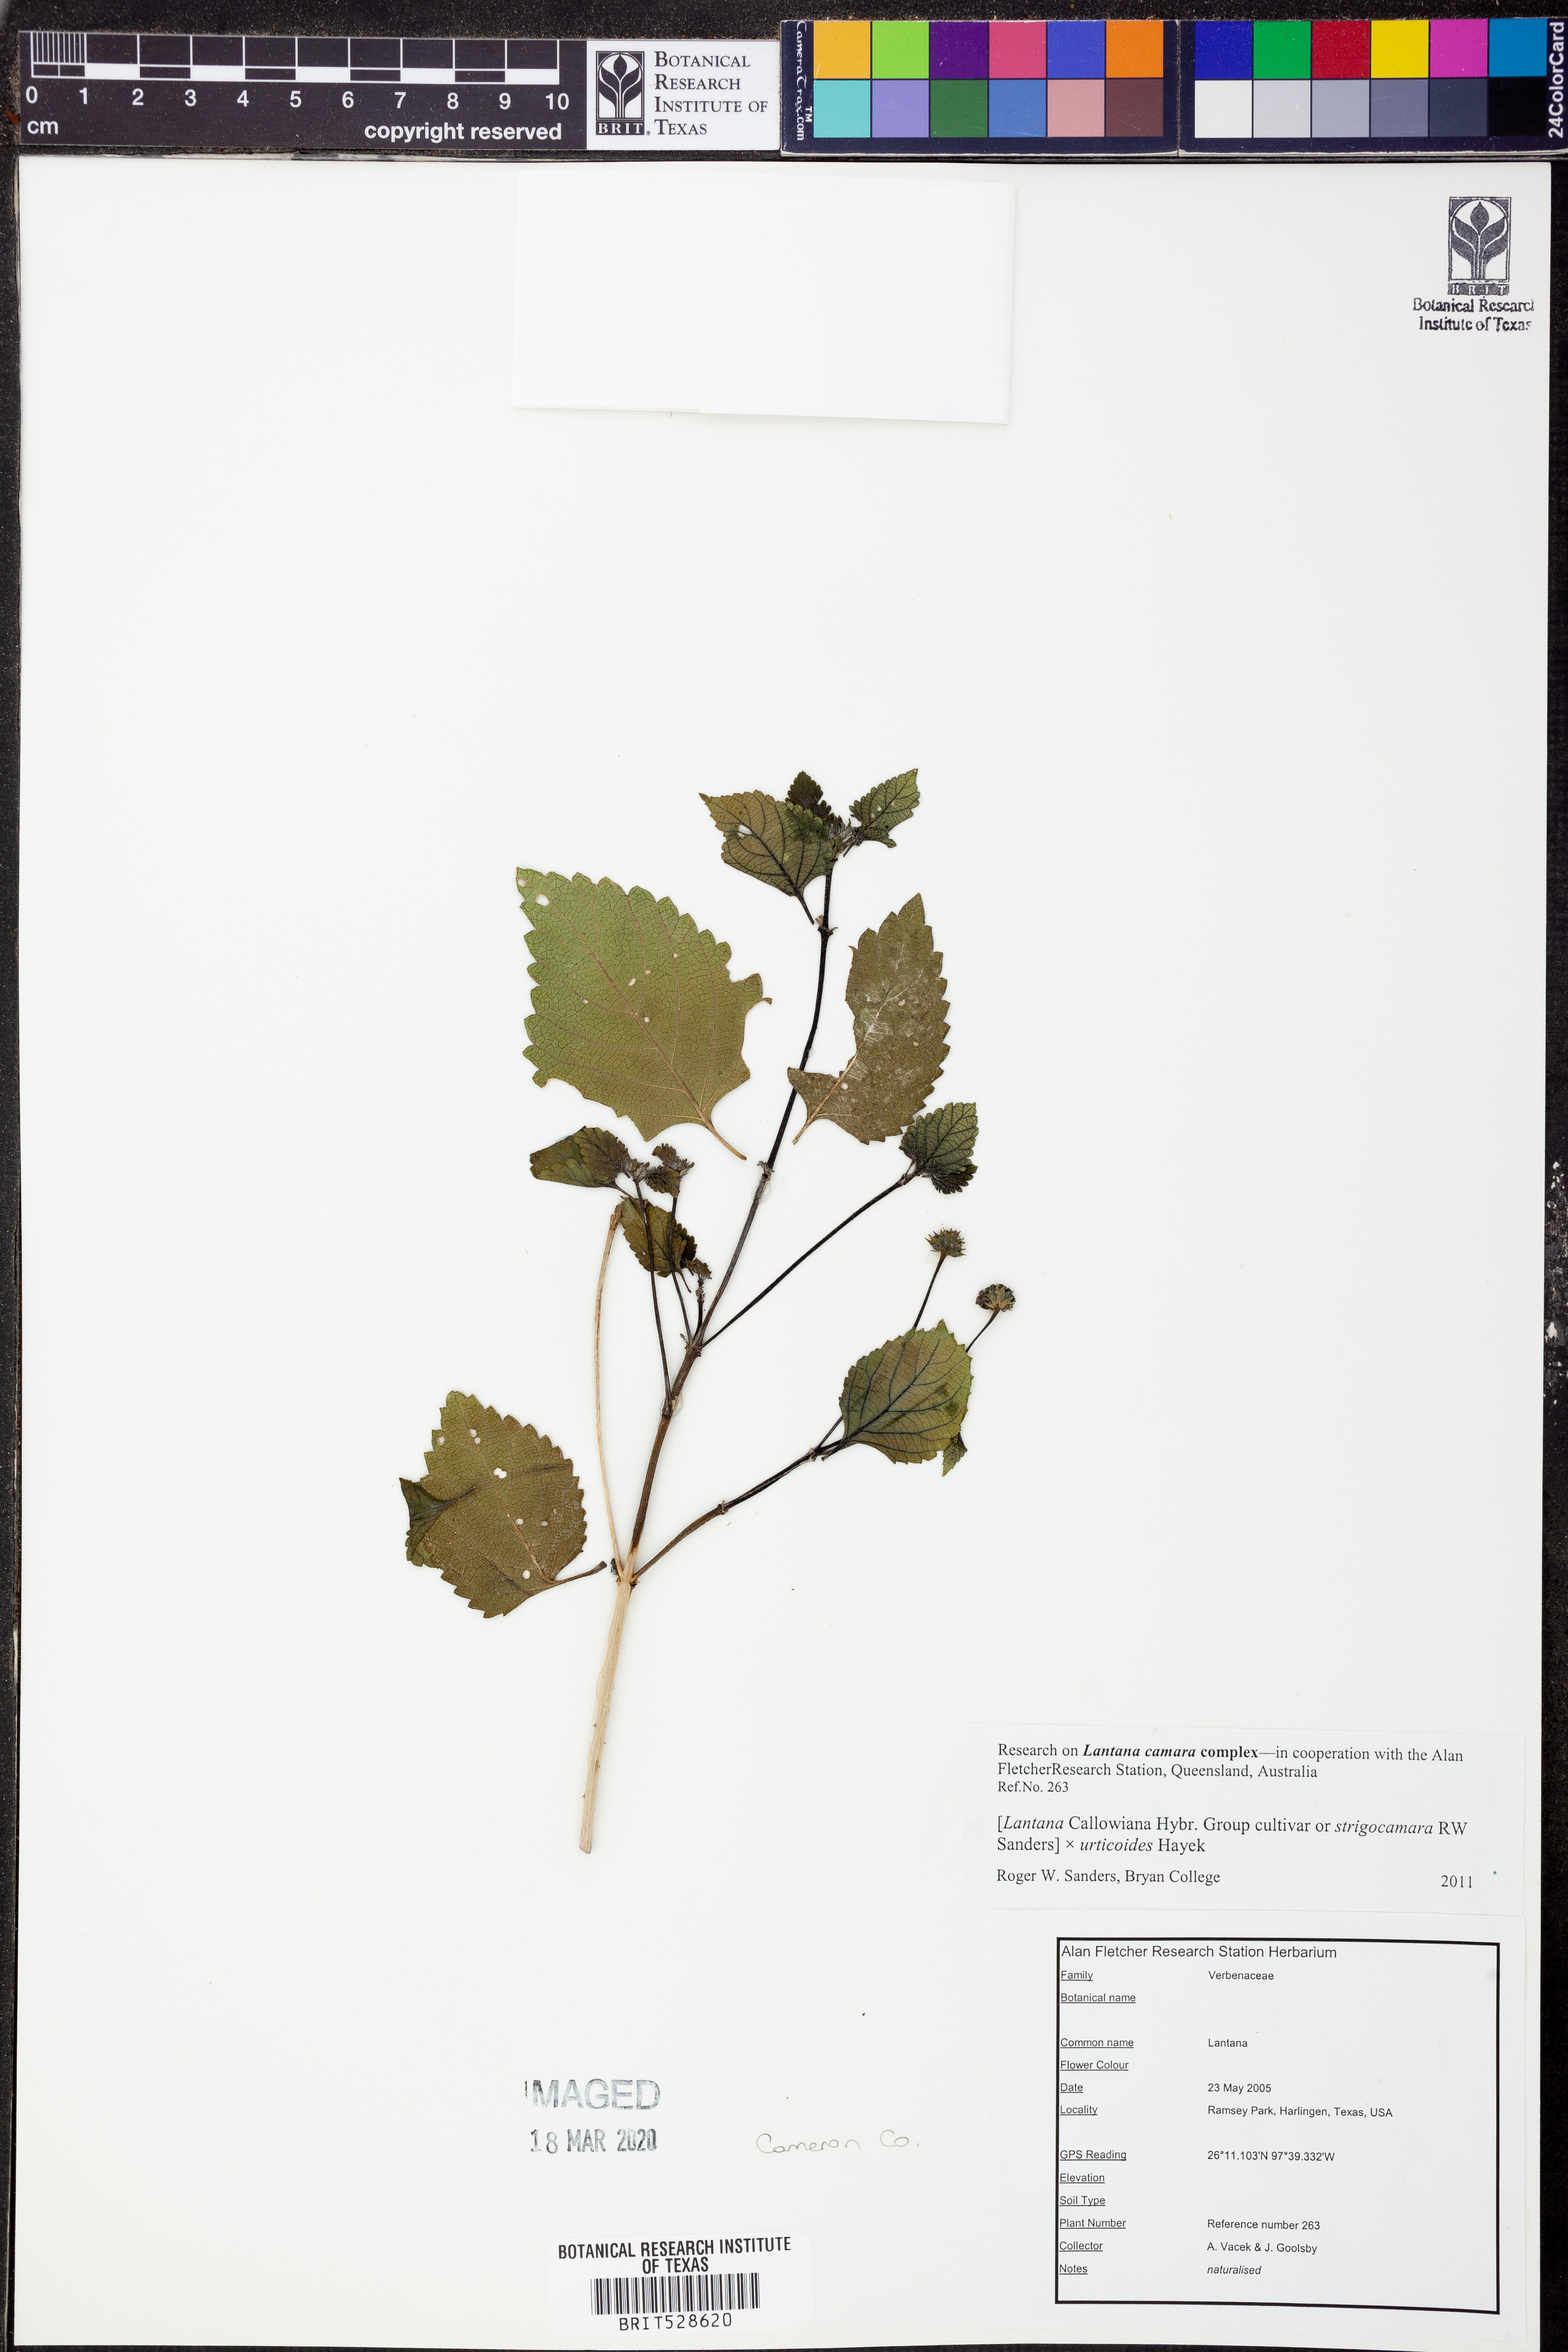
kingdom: Plantae
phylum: Tracheophyta
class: Magnoliopsida
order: Lamiales
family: Verbenaceae
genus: Lantana
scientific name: Lantana strigocamara
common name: Lantana
